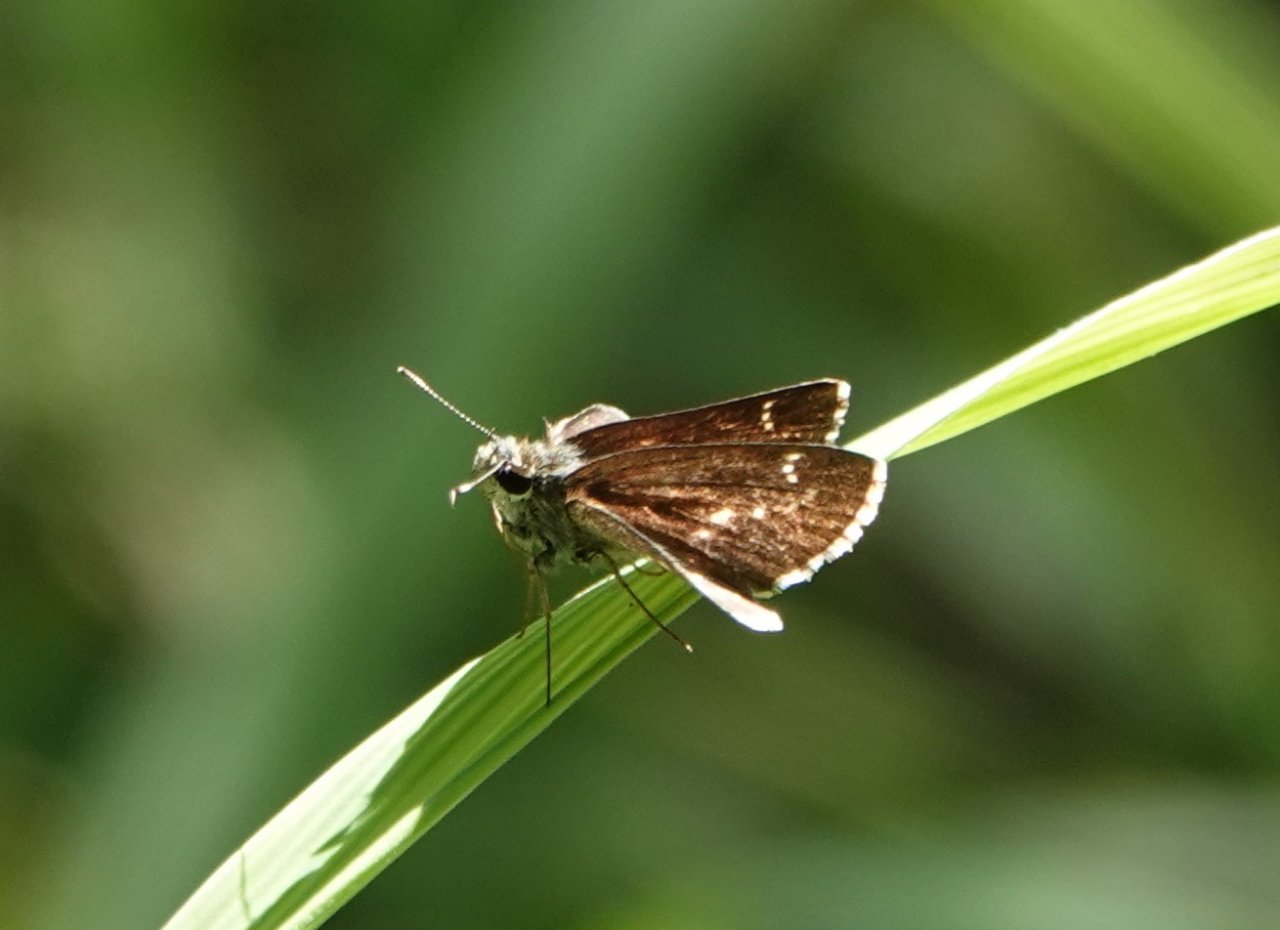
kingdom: Animalia
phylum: Arthropoda
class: Insecta
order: Lepidoptera
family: Hesperiidae
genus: Mastor
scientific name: Mastor celia
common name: Celia's Roadside-Skipper
